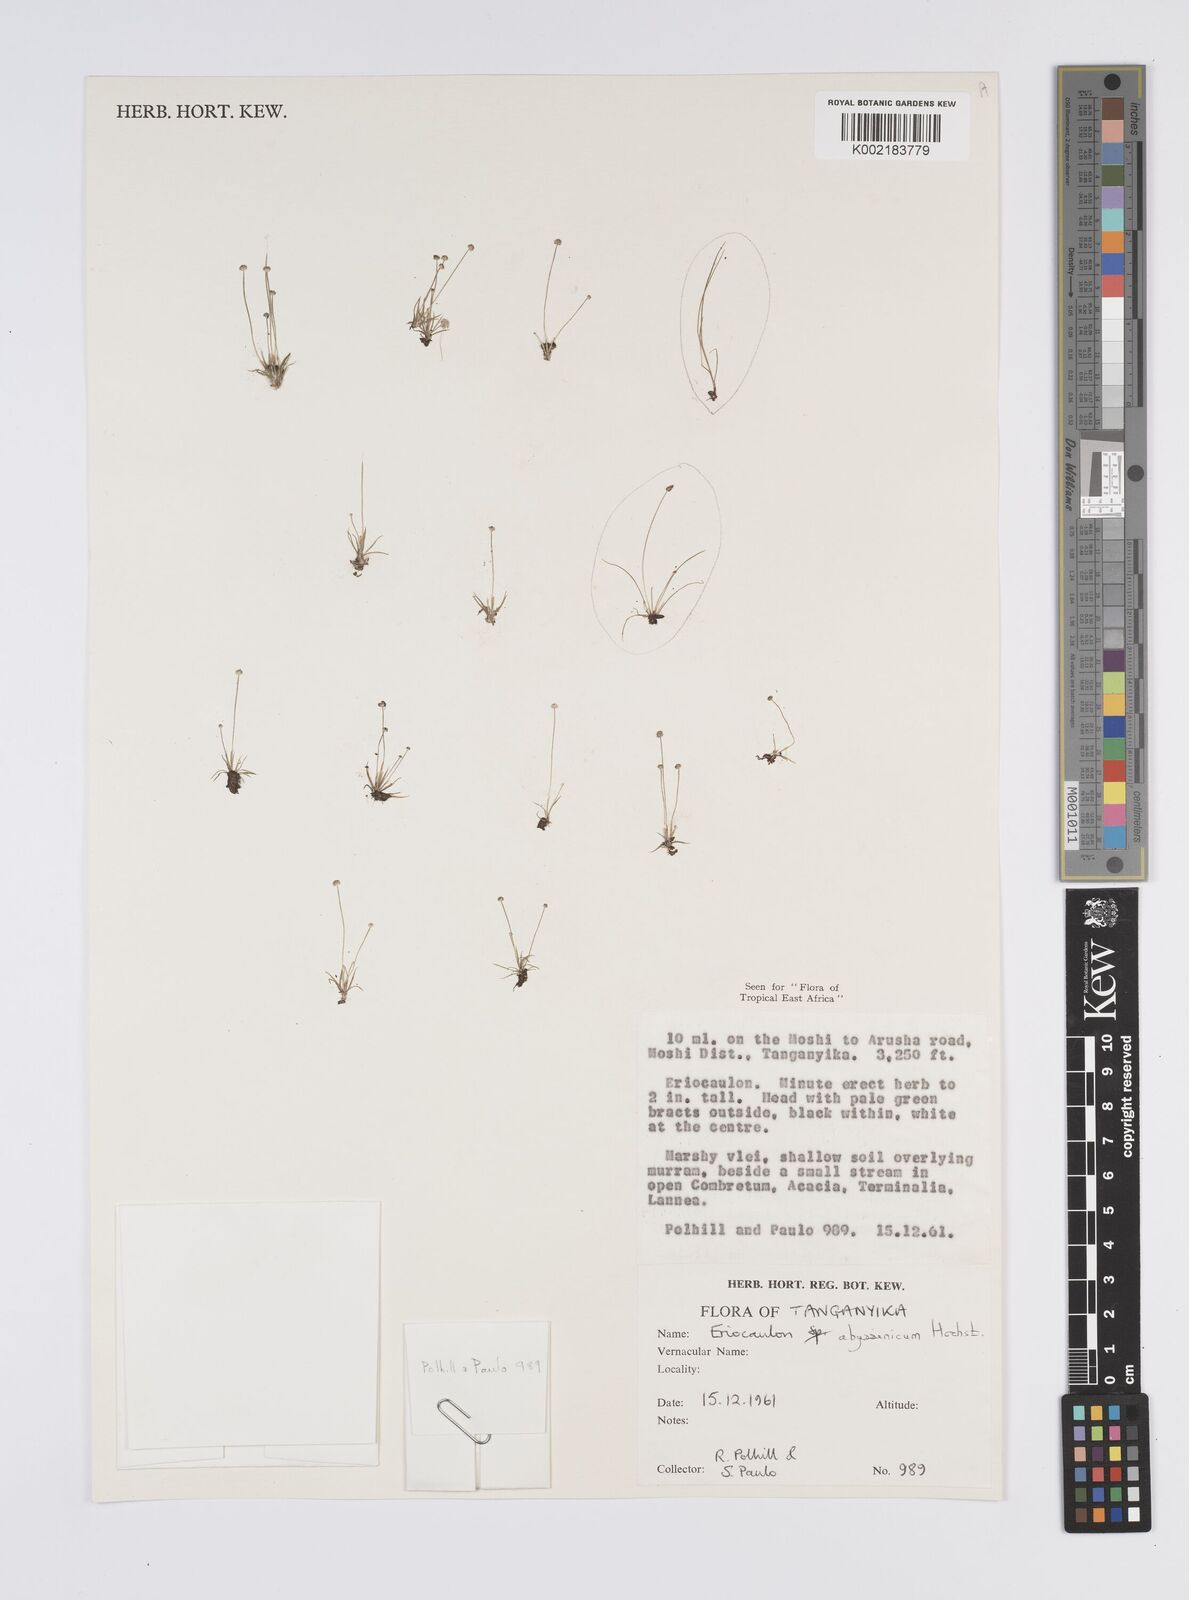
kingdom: Plantae
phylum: Tracheophyta
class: Liliopsida
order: Poales
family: Eriocaulaceae
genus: Eriocaulon
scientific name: Eriocaulon abyssinicum
